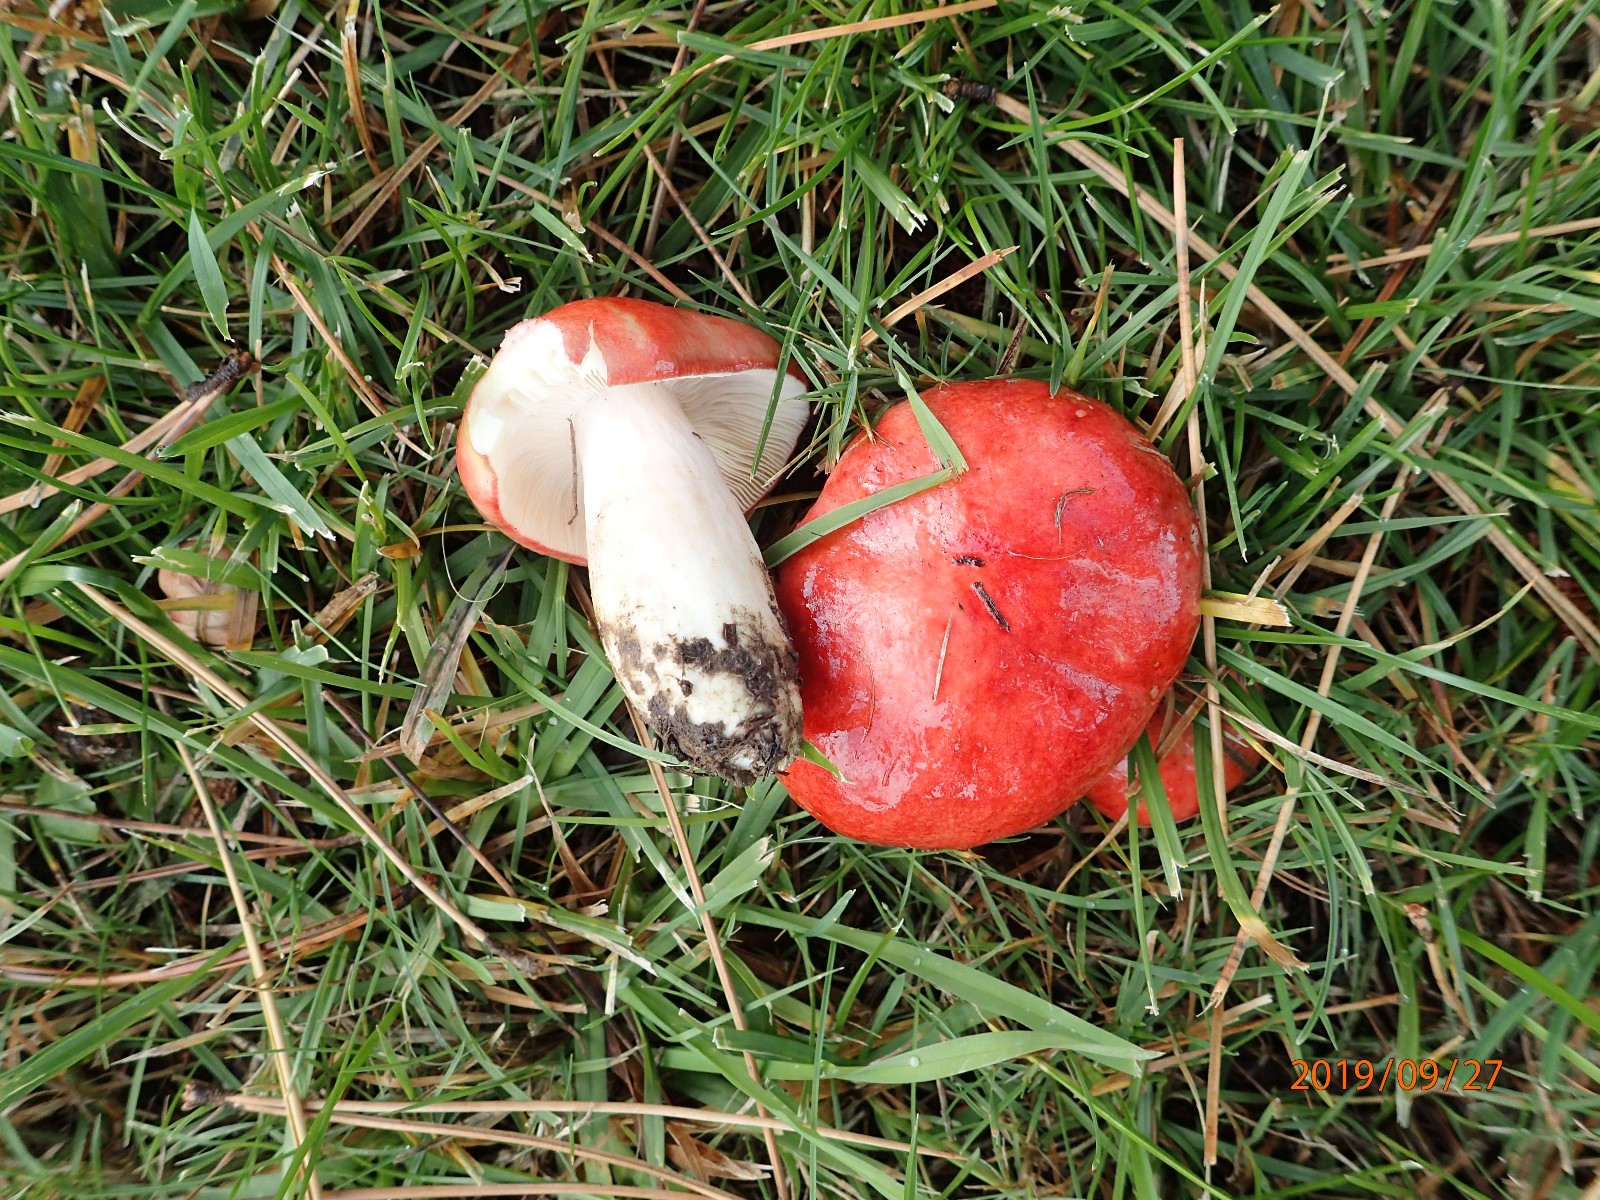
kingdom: Fungi
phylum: Basidiomycota
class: Agaricomycetes
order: Russulales
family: Russulaceae
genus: Russula
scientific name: Russula
